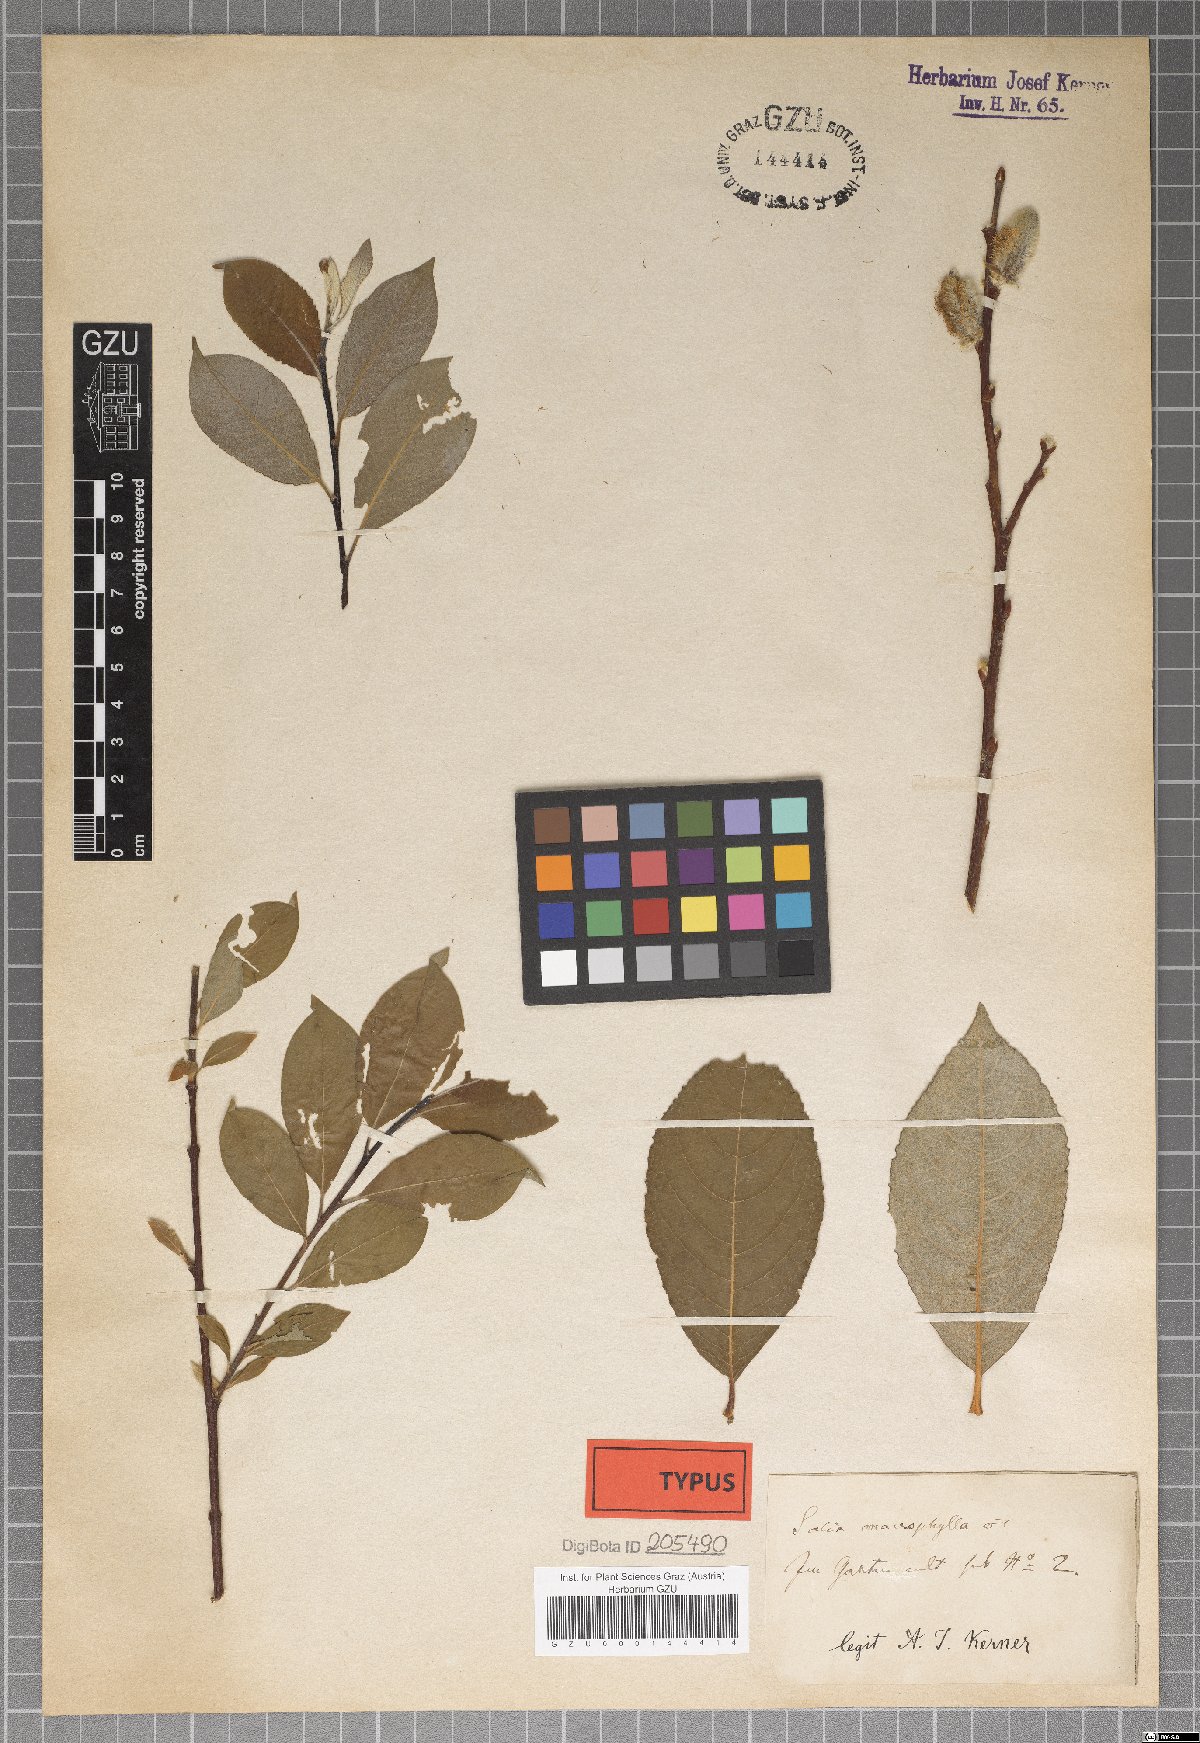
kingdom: Plantae
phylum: Tracheophyta
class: Magnoliopsida
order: Malpighiales
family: Salicaceae
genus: Salix
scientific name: Salix macrophylla
